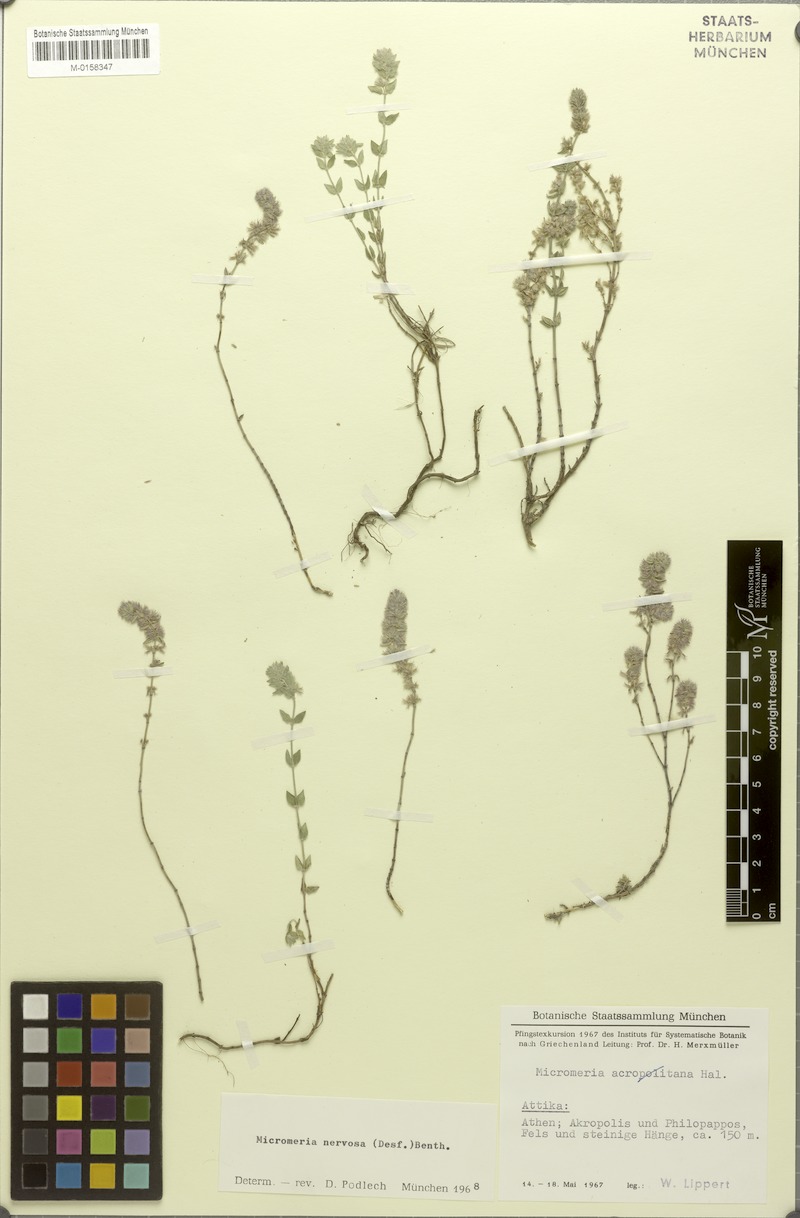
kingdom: Plantae
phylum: Tracheophyta
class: Magnoliopsida
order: Lamiales
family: Lamiaceae
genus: Micromeria
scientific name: Micromeria nervosa
